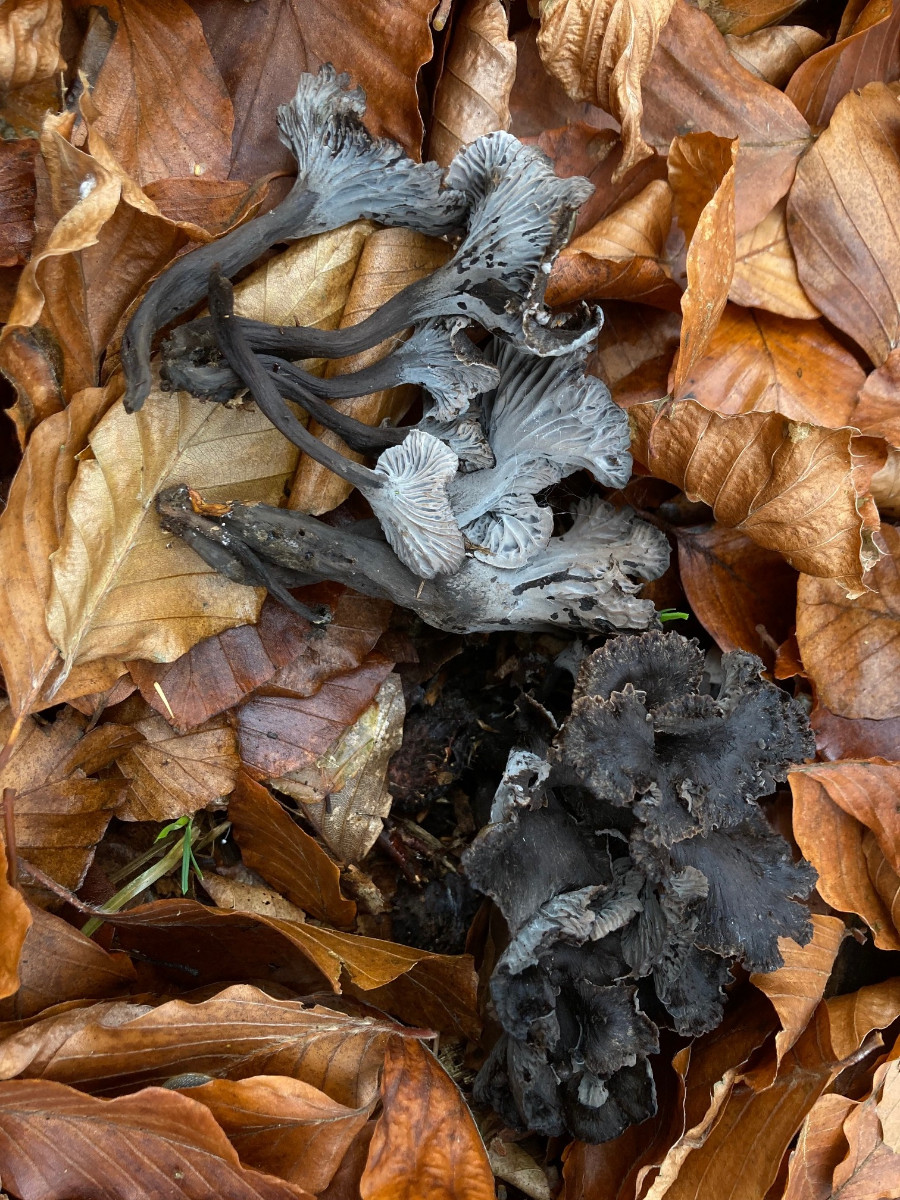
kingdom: Fungi
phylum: Basidiomycota
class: Agaricomycetes
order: Cantharellales
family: Hydnaceae
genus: Cantharellus
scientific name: Cantharellus cinereus
